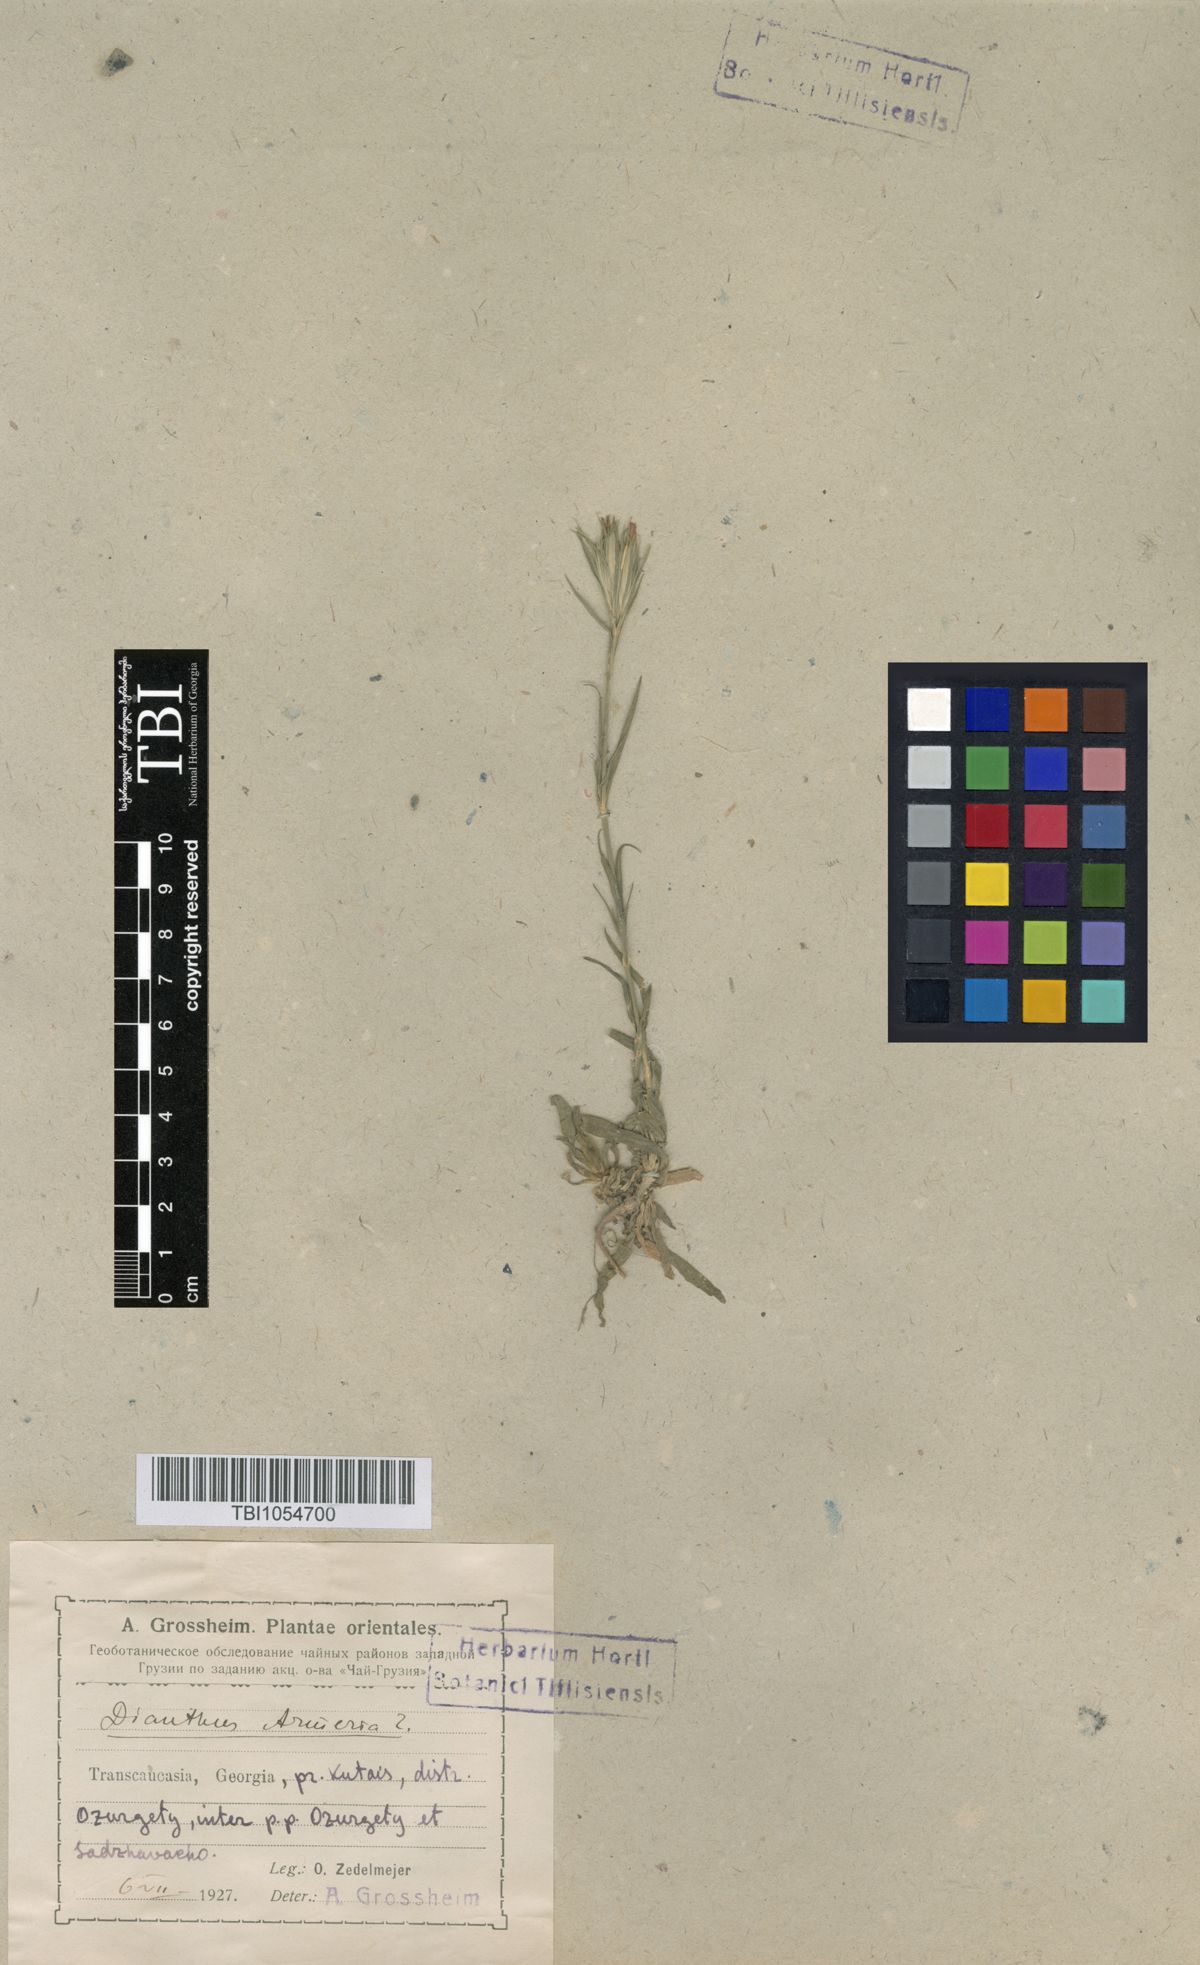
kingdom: Plantae
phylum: Tracheophyta
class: Magnoliopsida
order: Caryophyllales
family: Caryophyllaceae
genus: Dianthus
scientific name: Dianthus armeria
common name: Deptford pink
